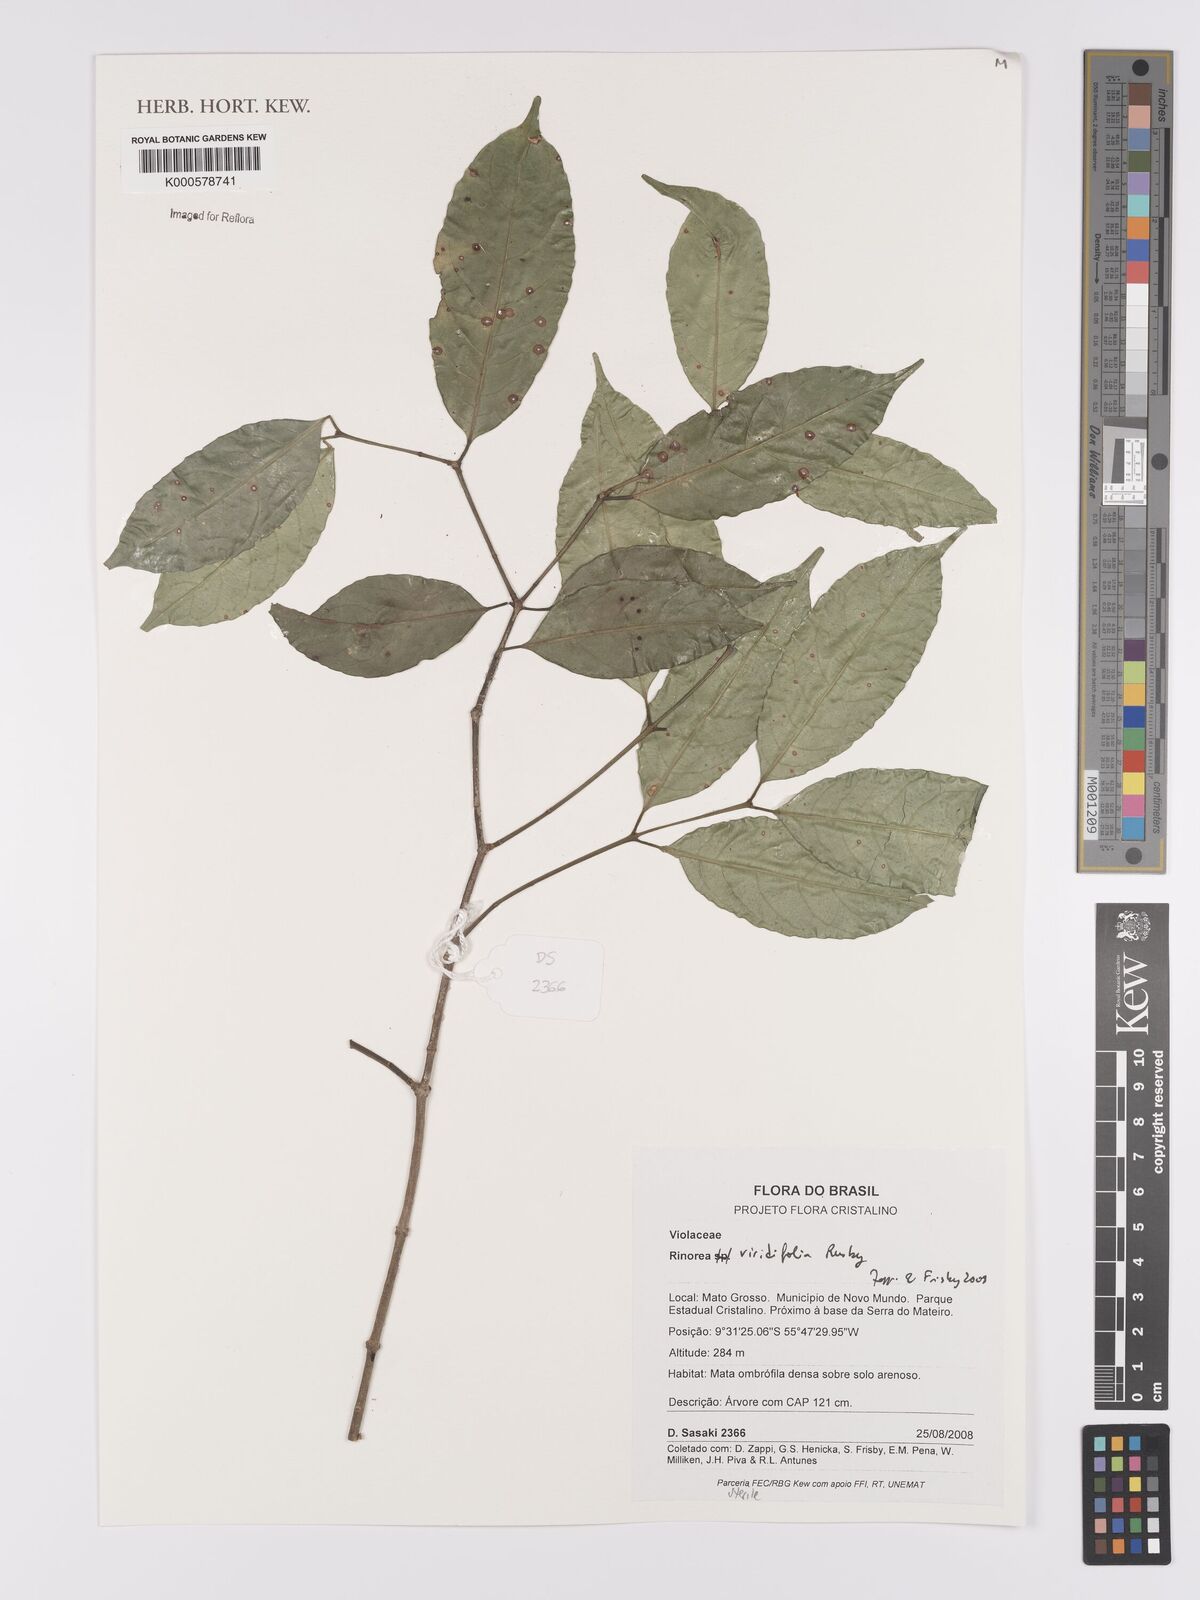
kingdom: Plantae
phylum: Tracheophyta
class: Magnoliopsida
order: Malpighiales
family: Violaceae
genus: Rinorea
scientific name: Rinorea viridifolia
